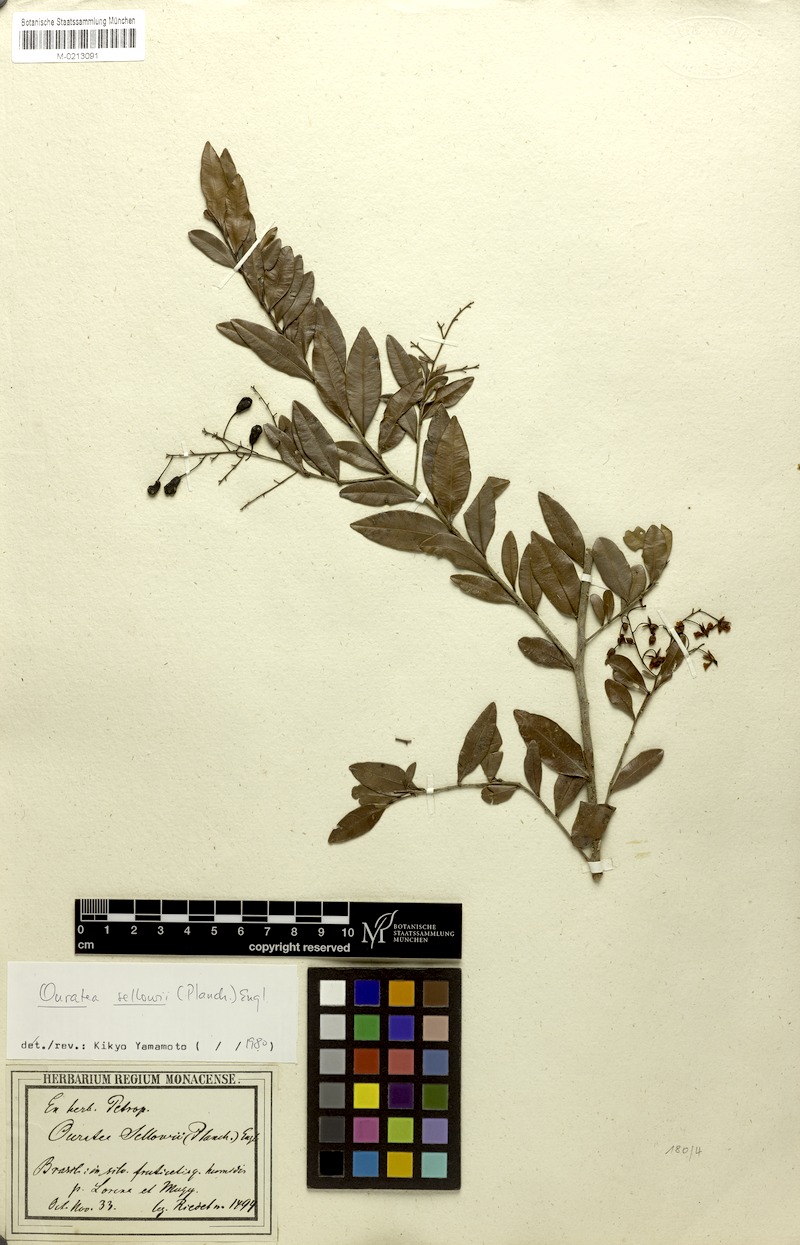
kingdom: Plantae
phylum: Tracheophyta
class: Magnoliopsida
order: Malpighiales
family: Ochnaceae
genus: Ouratea
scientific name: Ouratea sellowii
